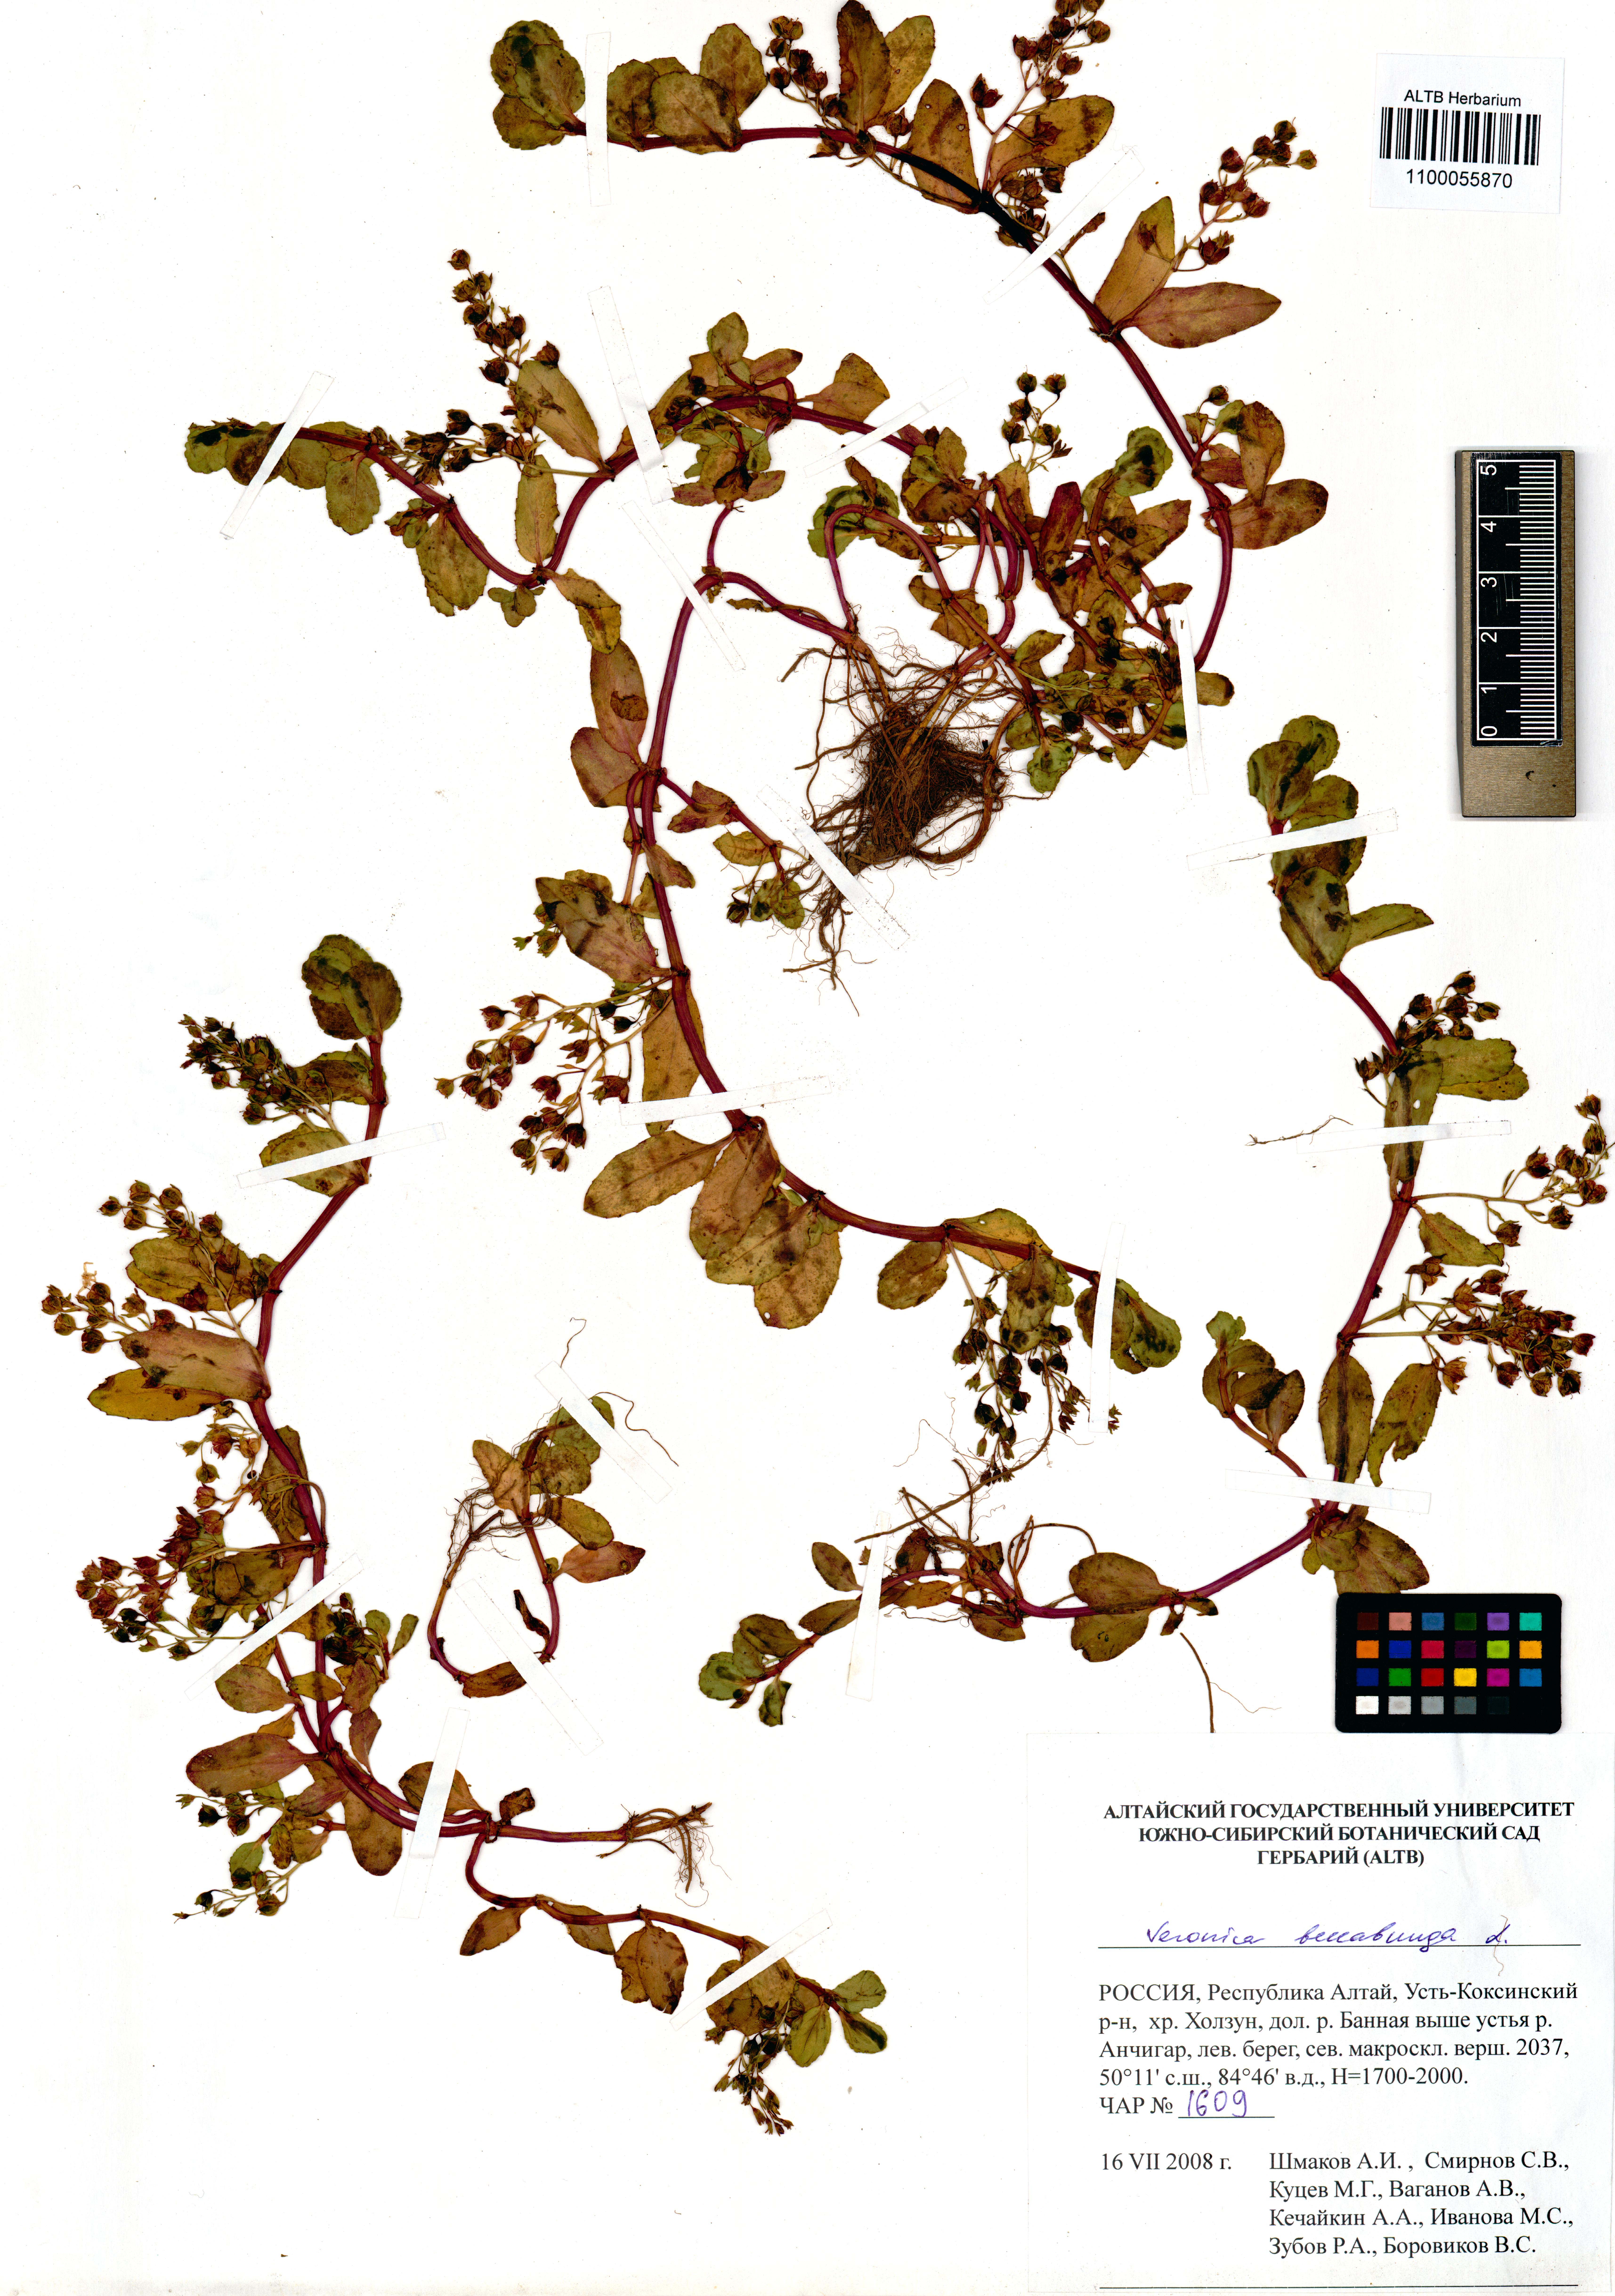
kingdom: Plantae
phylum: Tracheophyta
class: Magnoliopsida
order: Lamiales
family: Plantaginaceae
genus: Veronica
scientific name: Veronica beccabunga
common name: Brooklime
